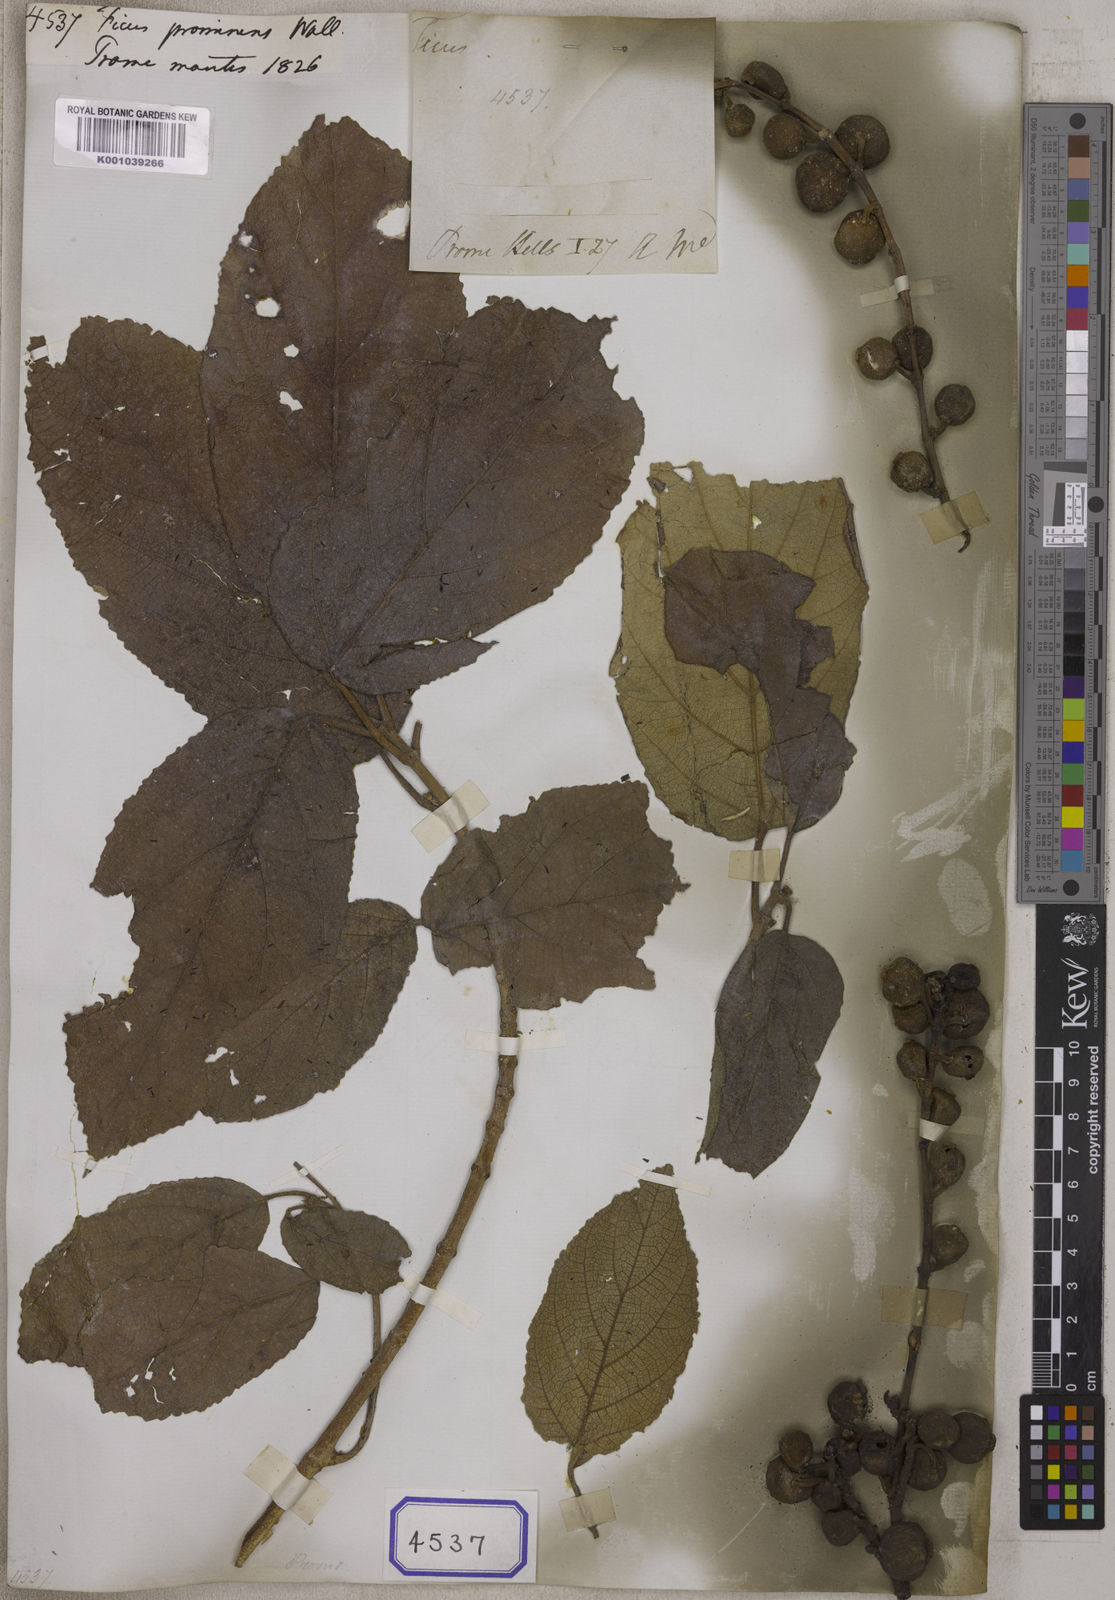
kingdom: Plantae
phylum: Tracheophyta
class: Magnoliopsida
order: Rosales
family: Moraceae
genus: Ficus
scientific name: Ficus
